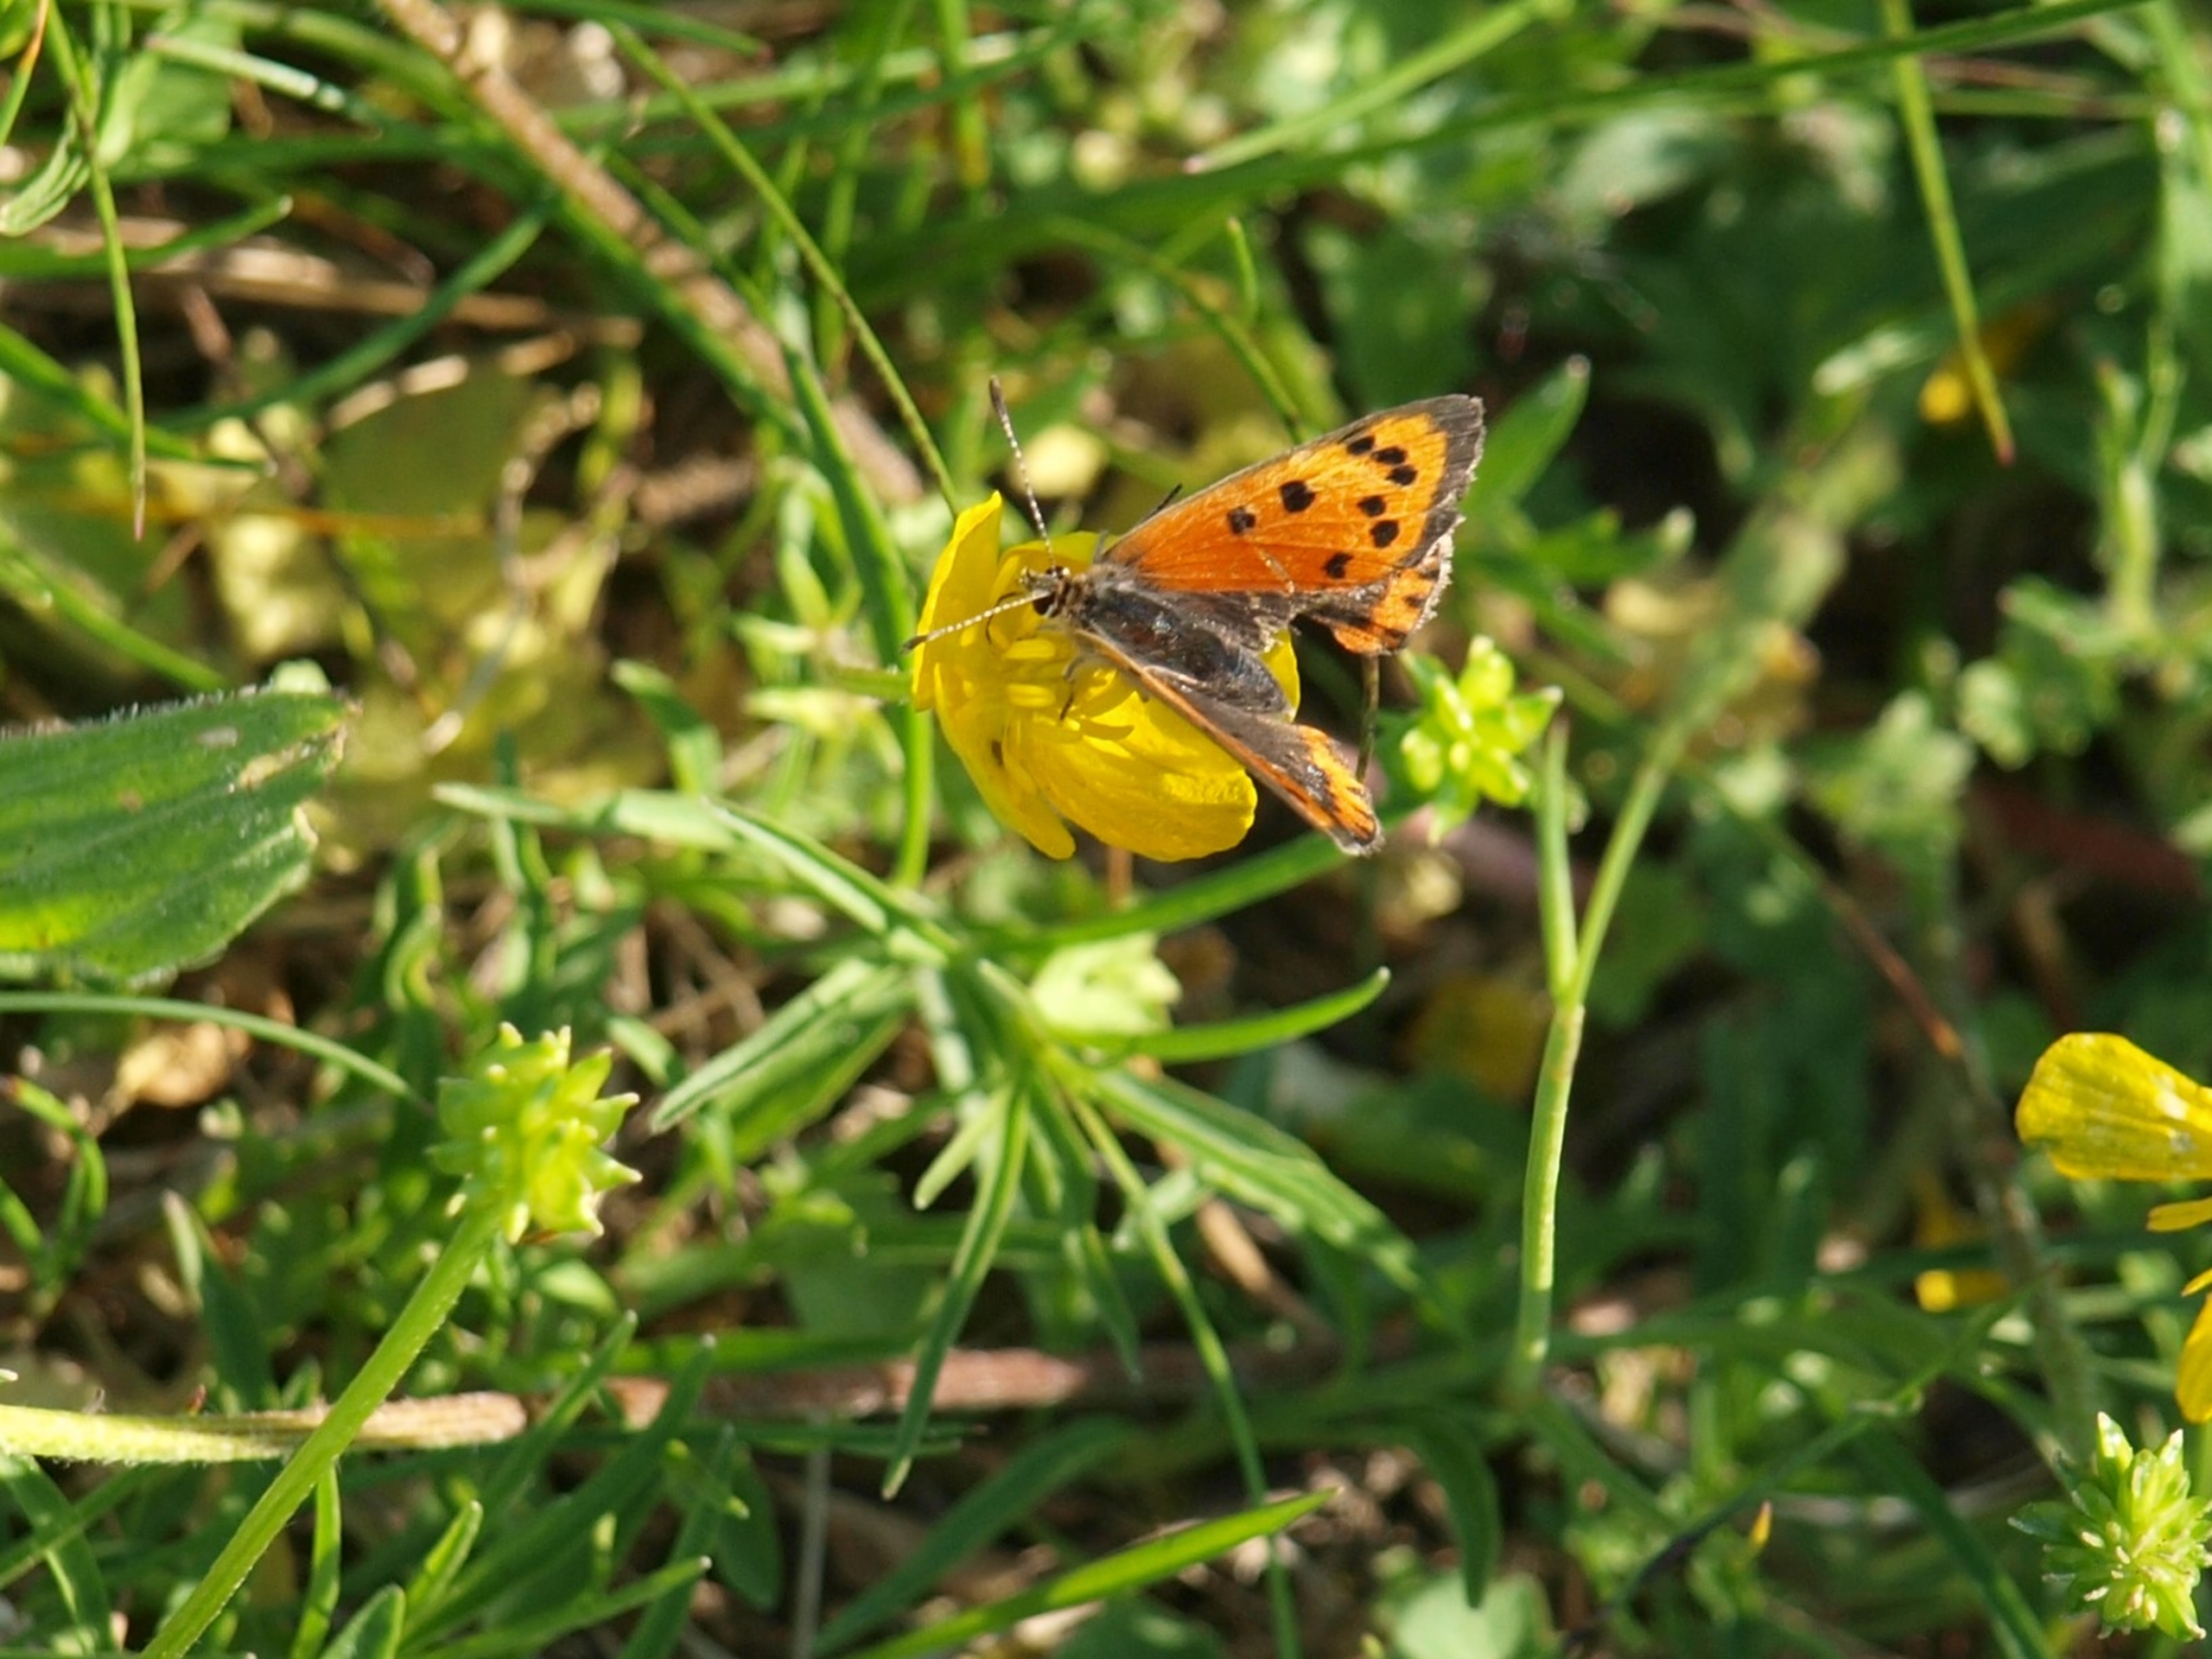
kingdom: Animalia
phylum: Arthropoda
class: Insecta
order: Lepidoptera
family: Lycaenidae
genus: Lycaena
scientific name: Lycaena phlaeas
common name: Lille ildfugl
